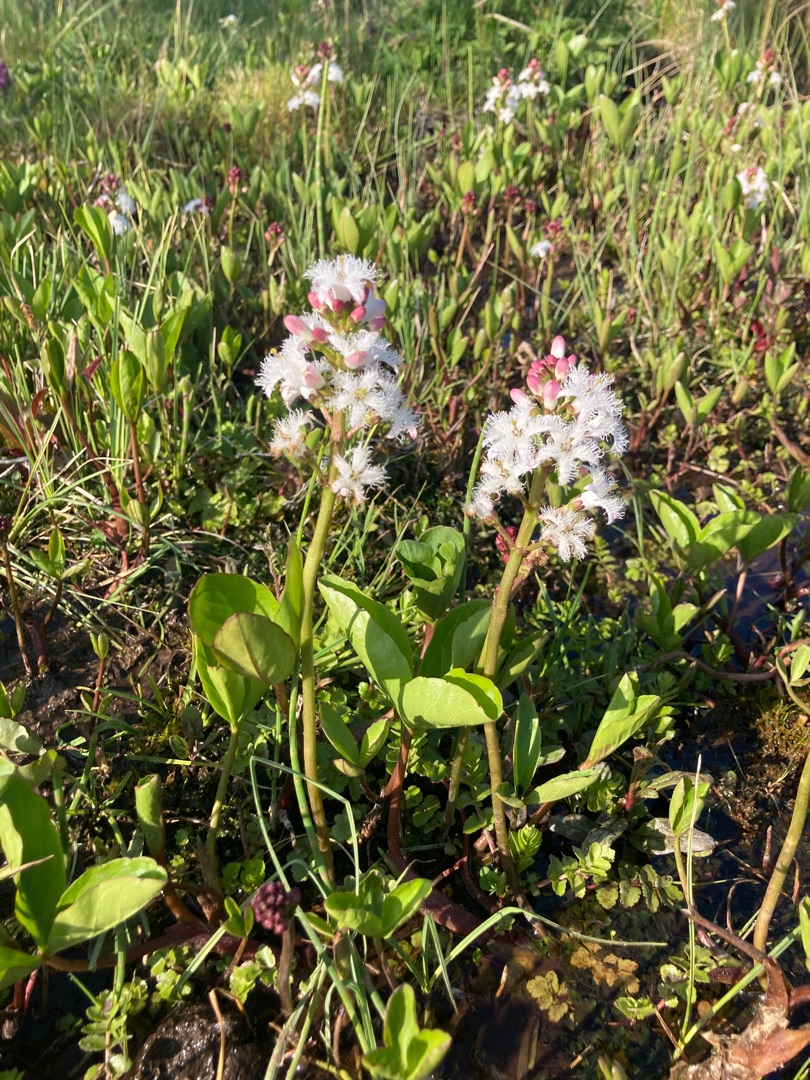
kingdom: Plantae
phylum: Tracheophyta
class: Magnoliopsida
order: Asterales
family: Menyanthaceae
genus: Menyanthes
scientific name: Menyanthes trifoliata
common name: Bukkeblad
